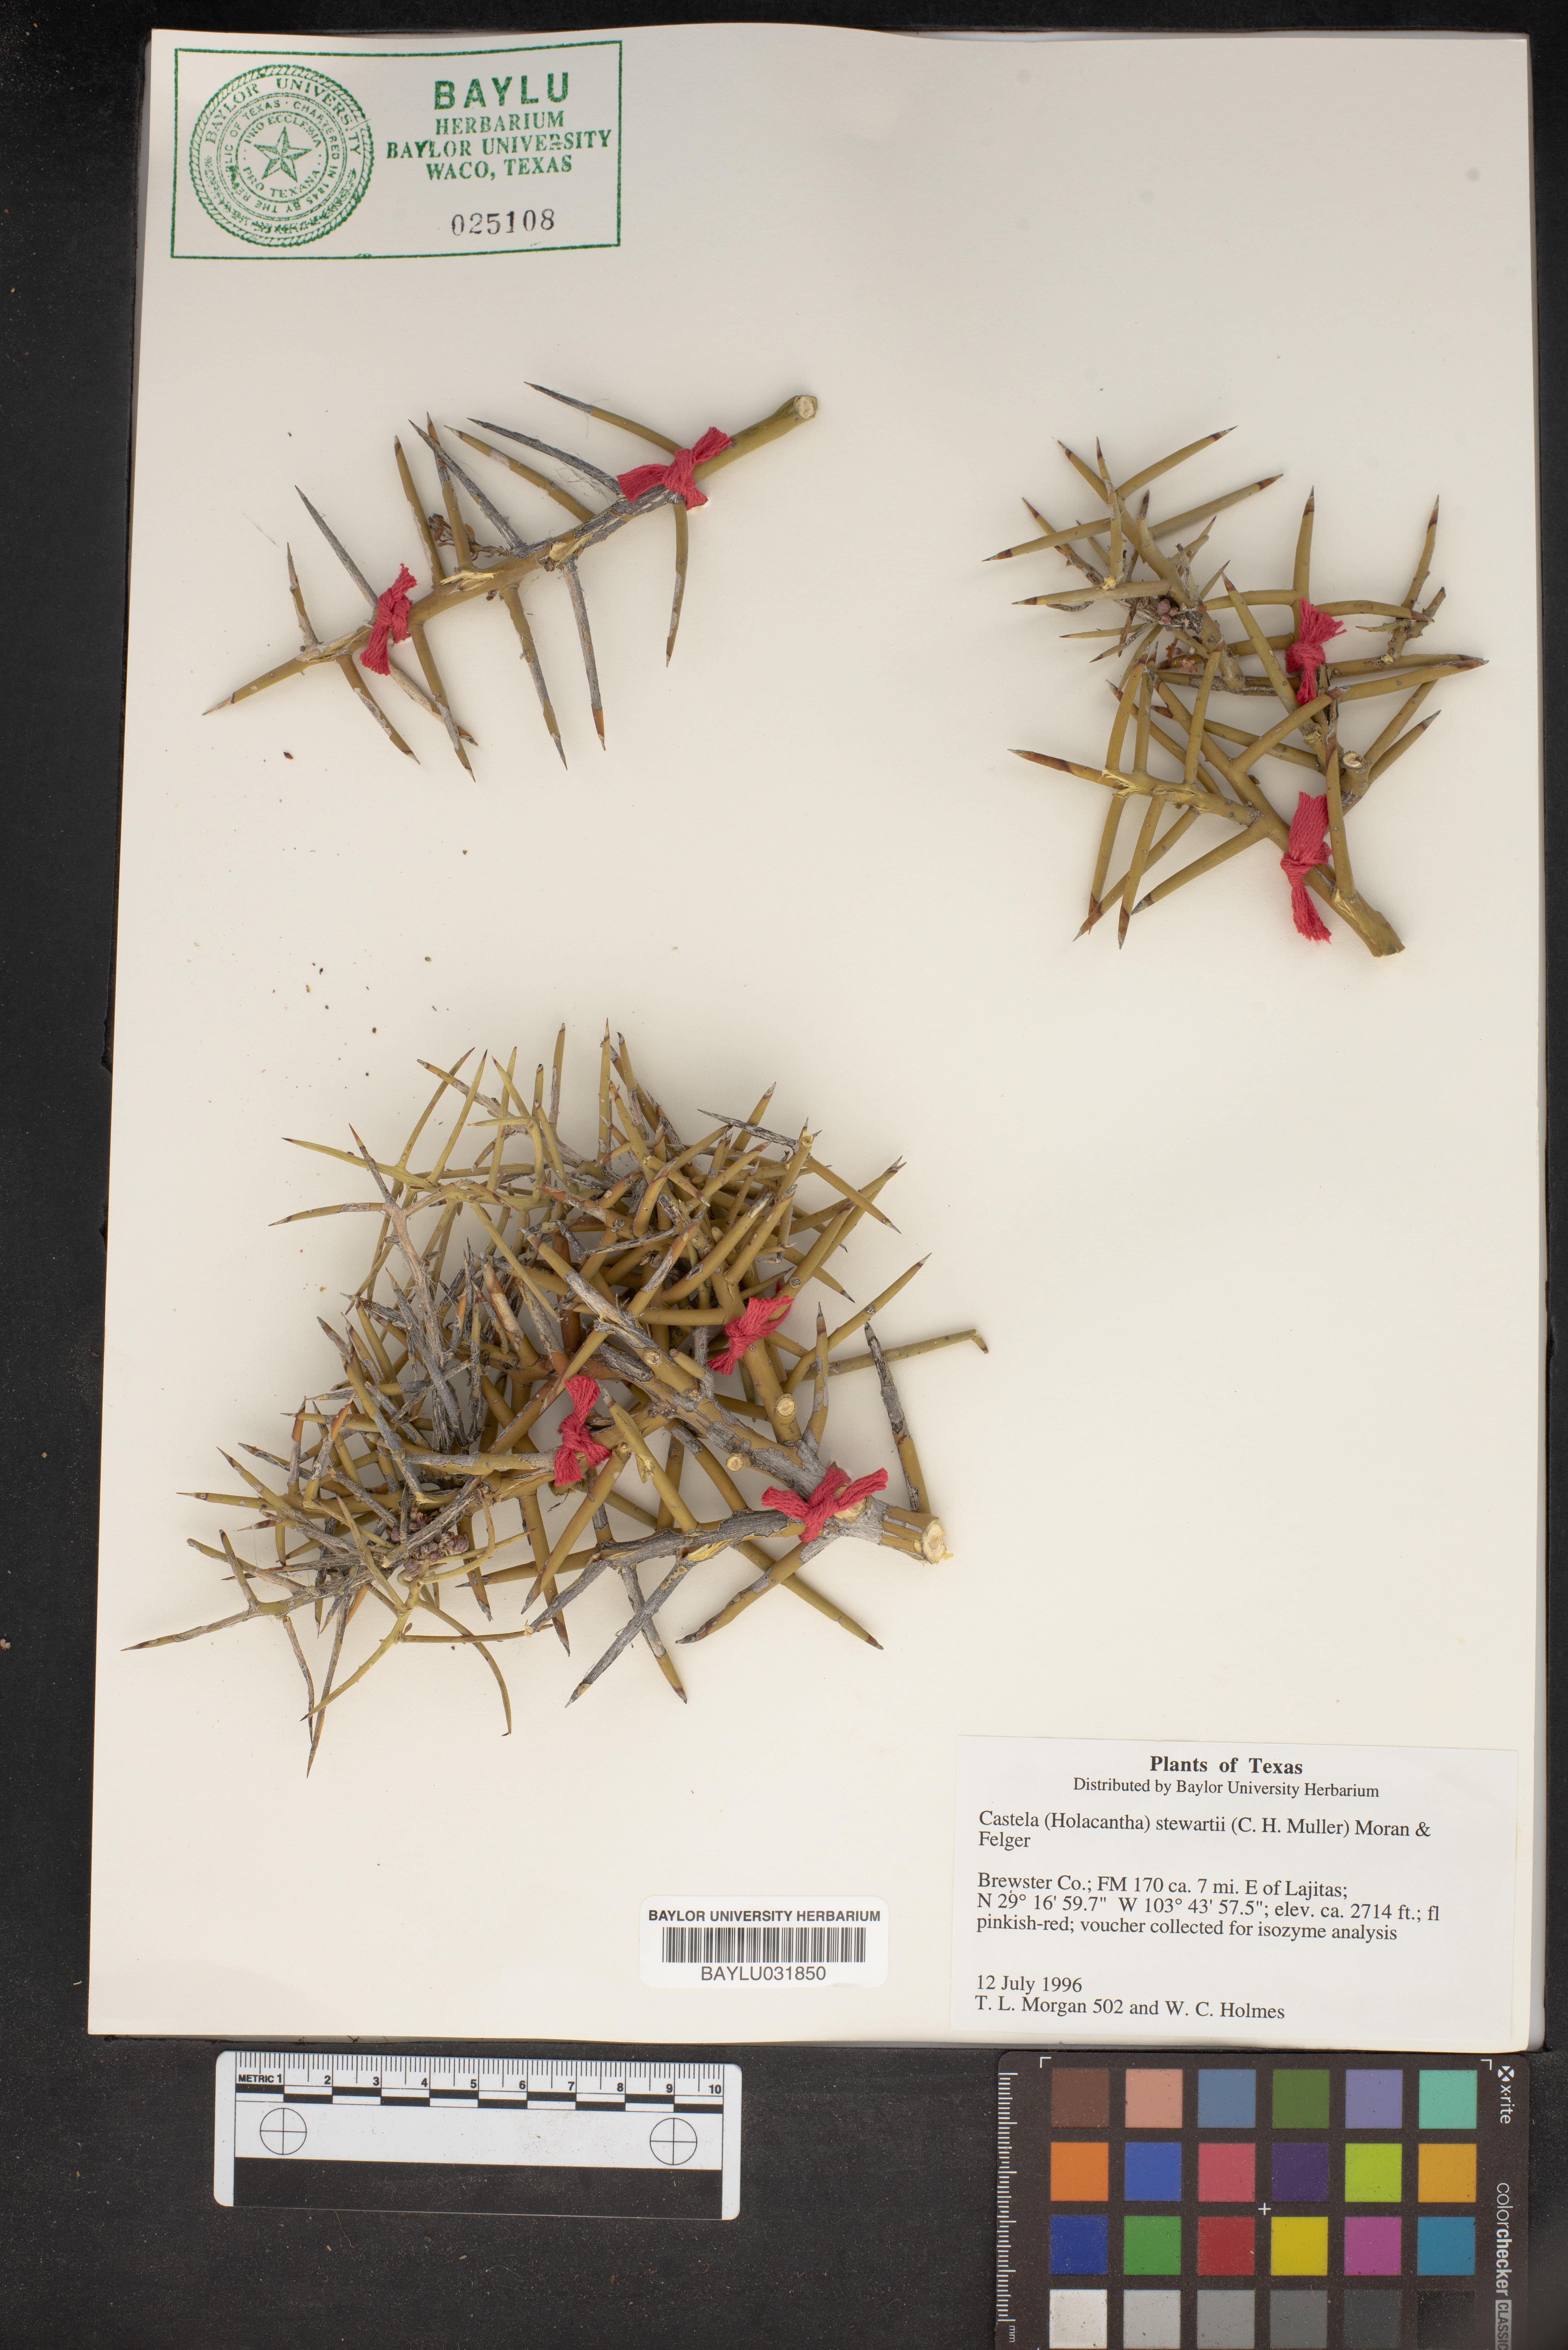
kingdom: Plantae
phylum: Tracheophyta
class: Magnoliopsida
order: Sapindales
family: Simaroubaceae
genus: Holacantha
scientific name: Holacantha stewartii
